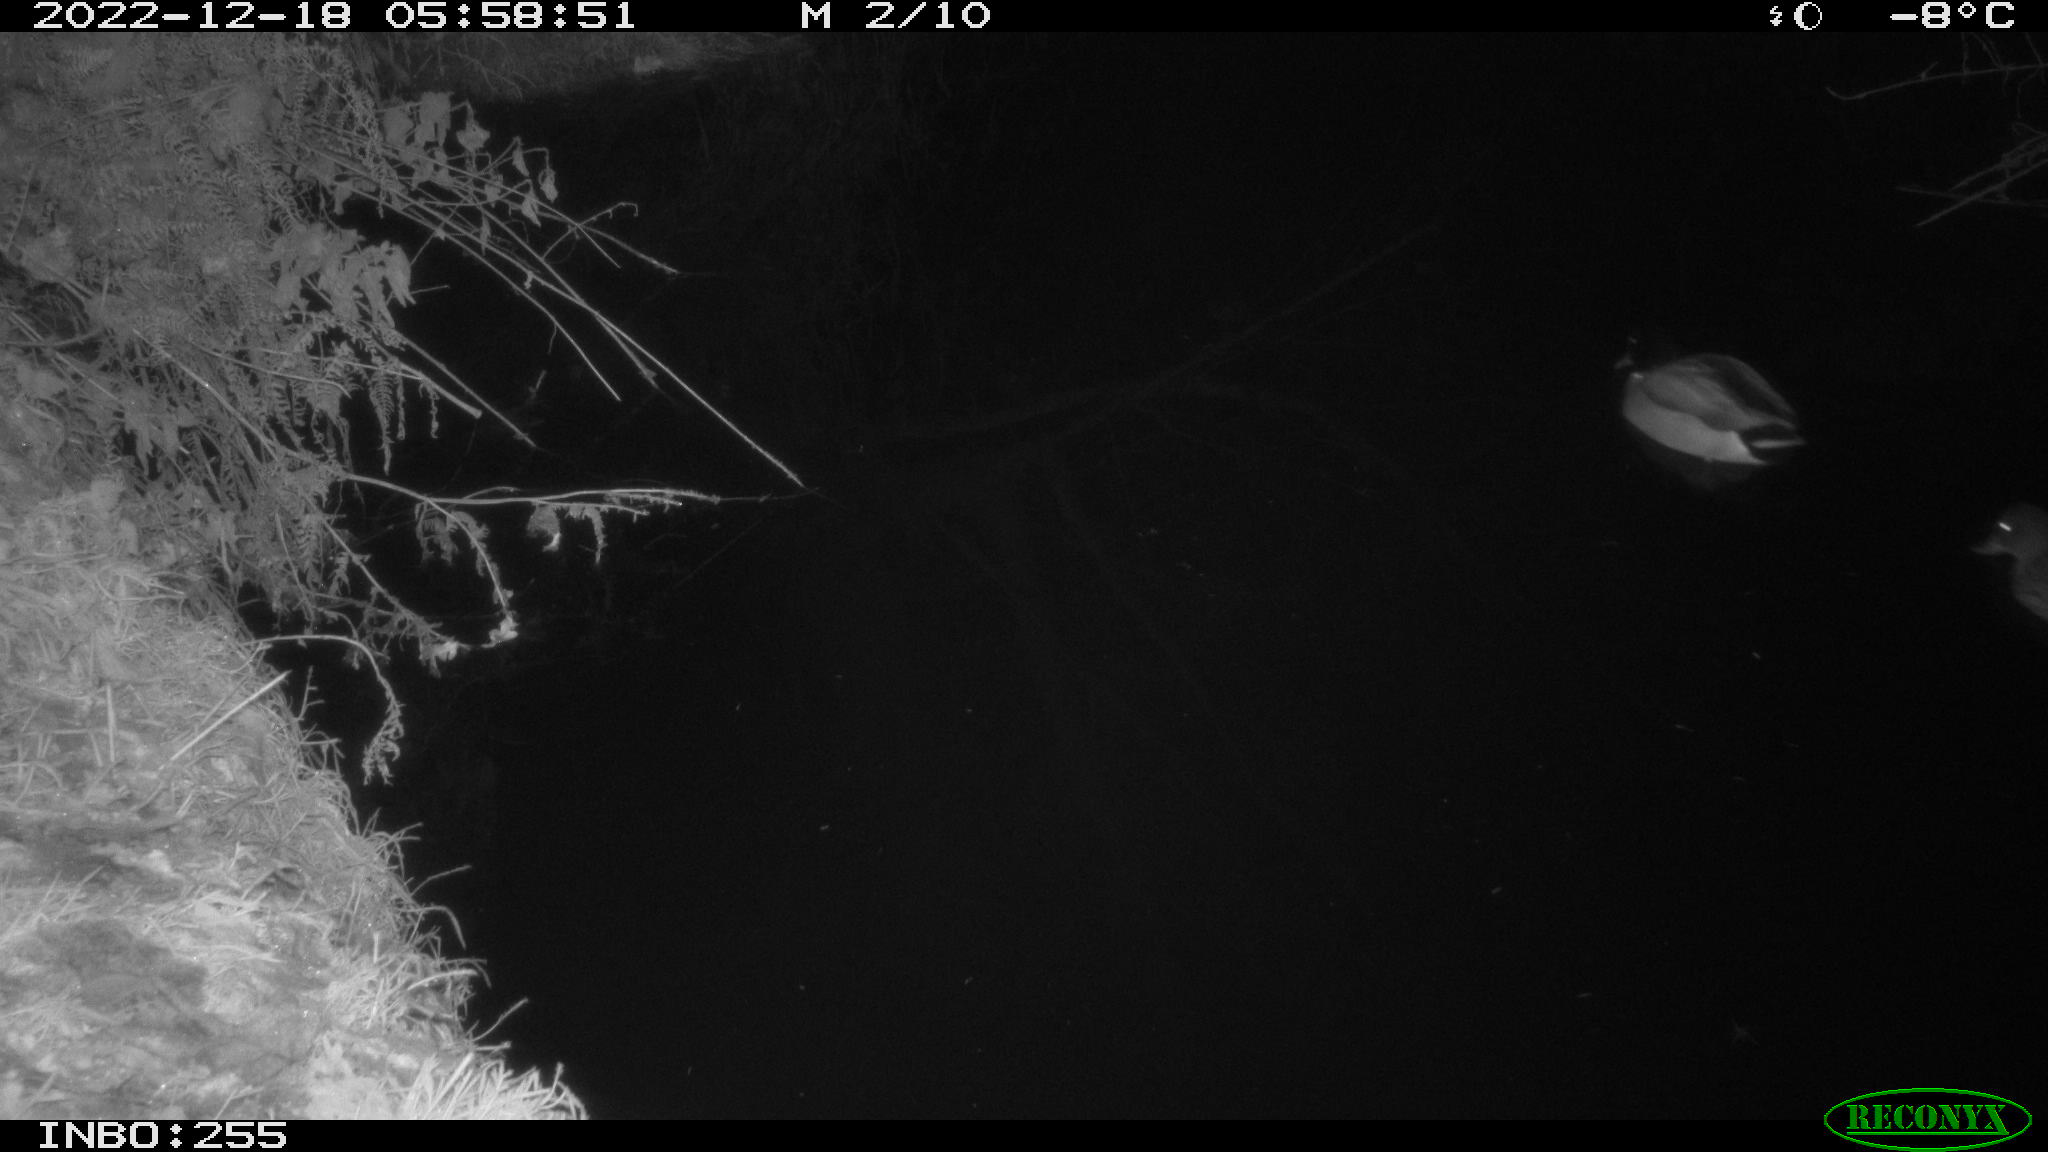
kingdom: Animalia
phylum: Chordata
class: Aves
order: Anseriformes
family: Anatidae
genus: Anas
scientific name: Anas
